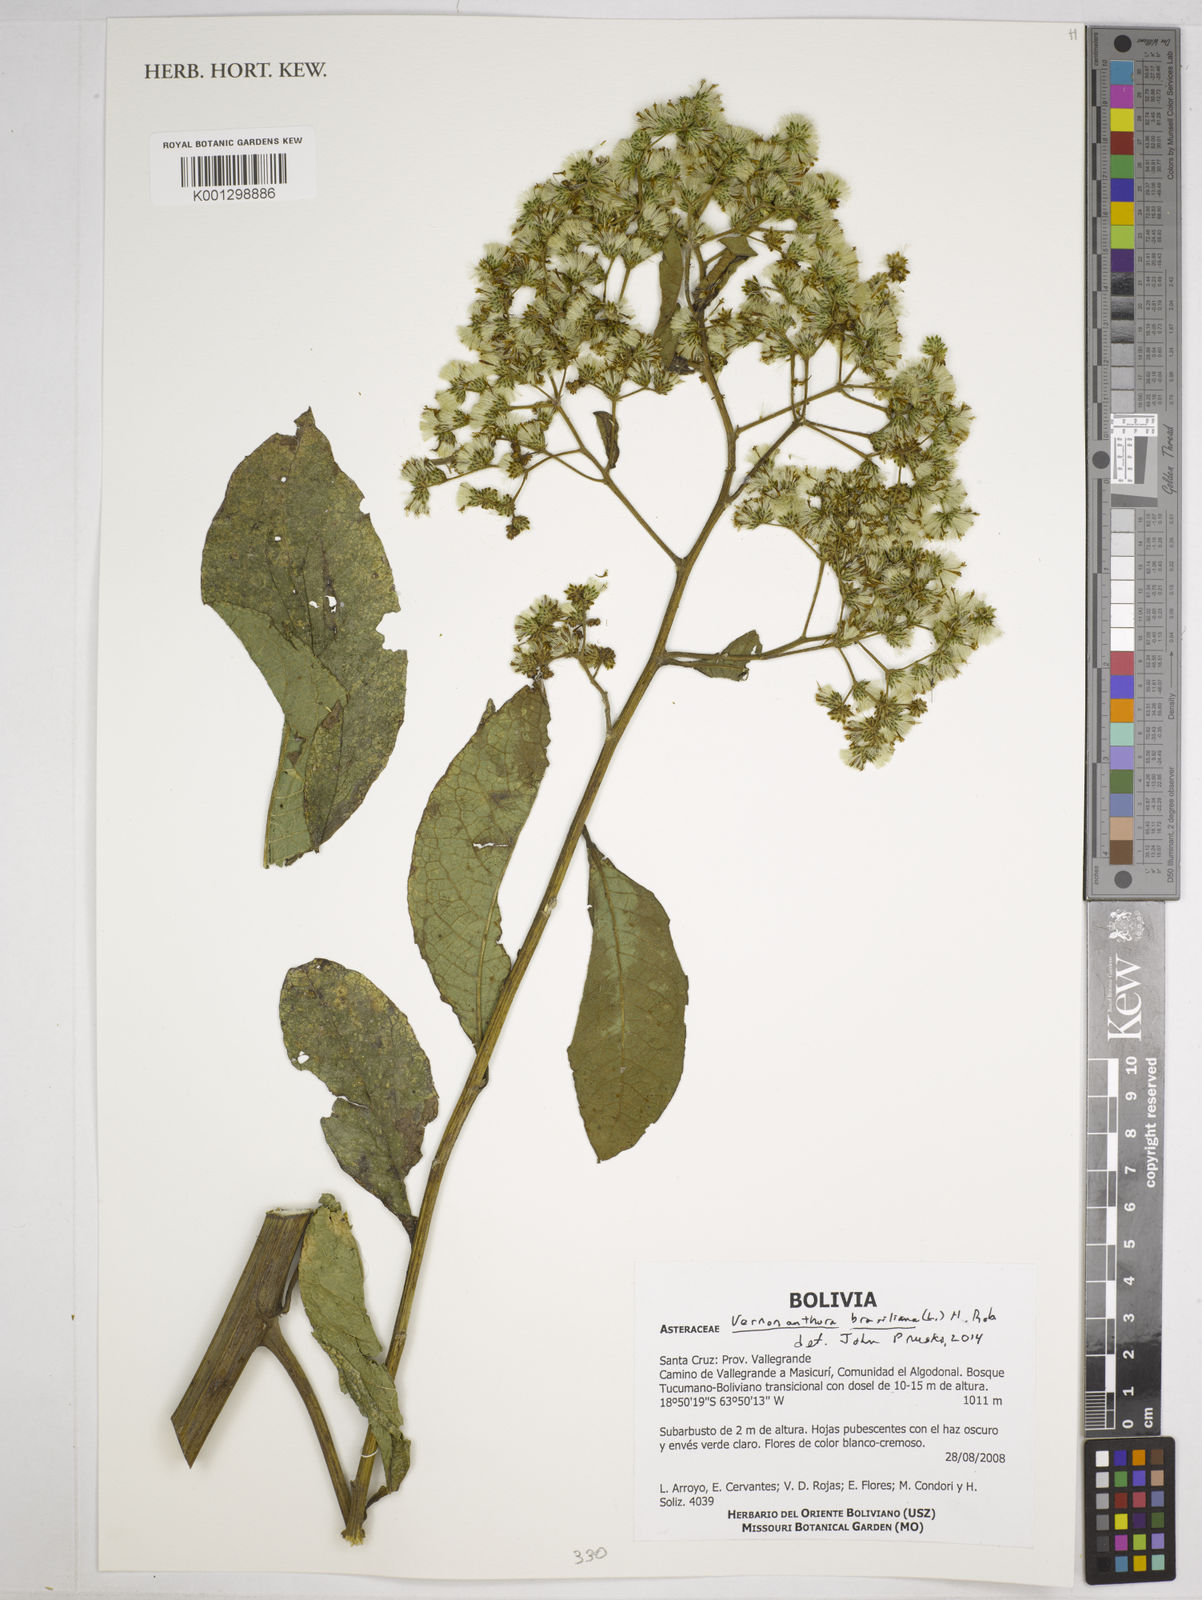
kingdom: Plantae
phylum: Tracheophyta
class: Magnoliopsida
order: Asterales
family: Asteraceae
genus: Vernonanthura
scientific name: Vernonanthura brasiliana
